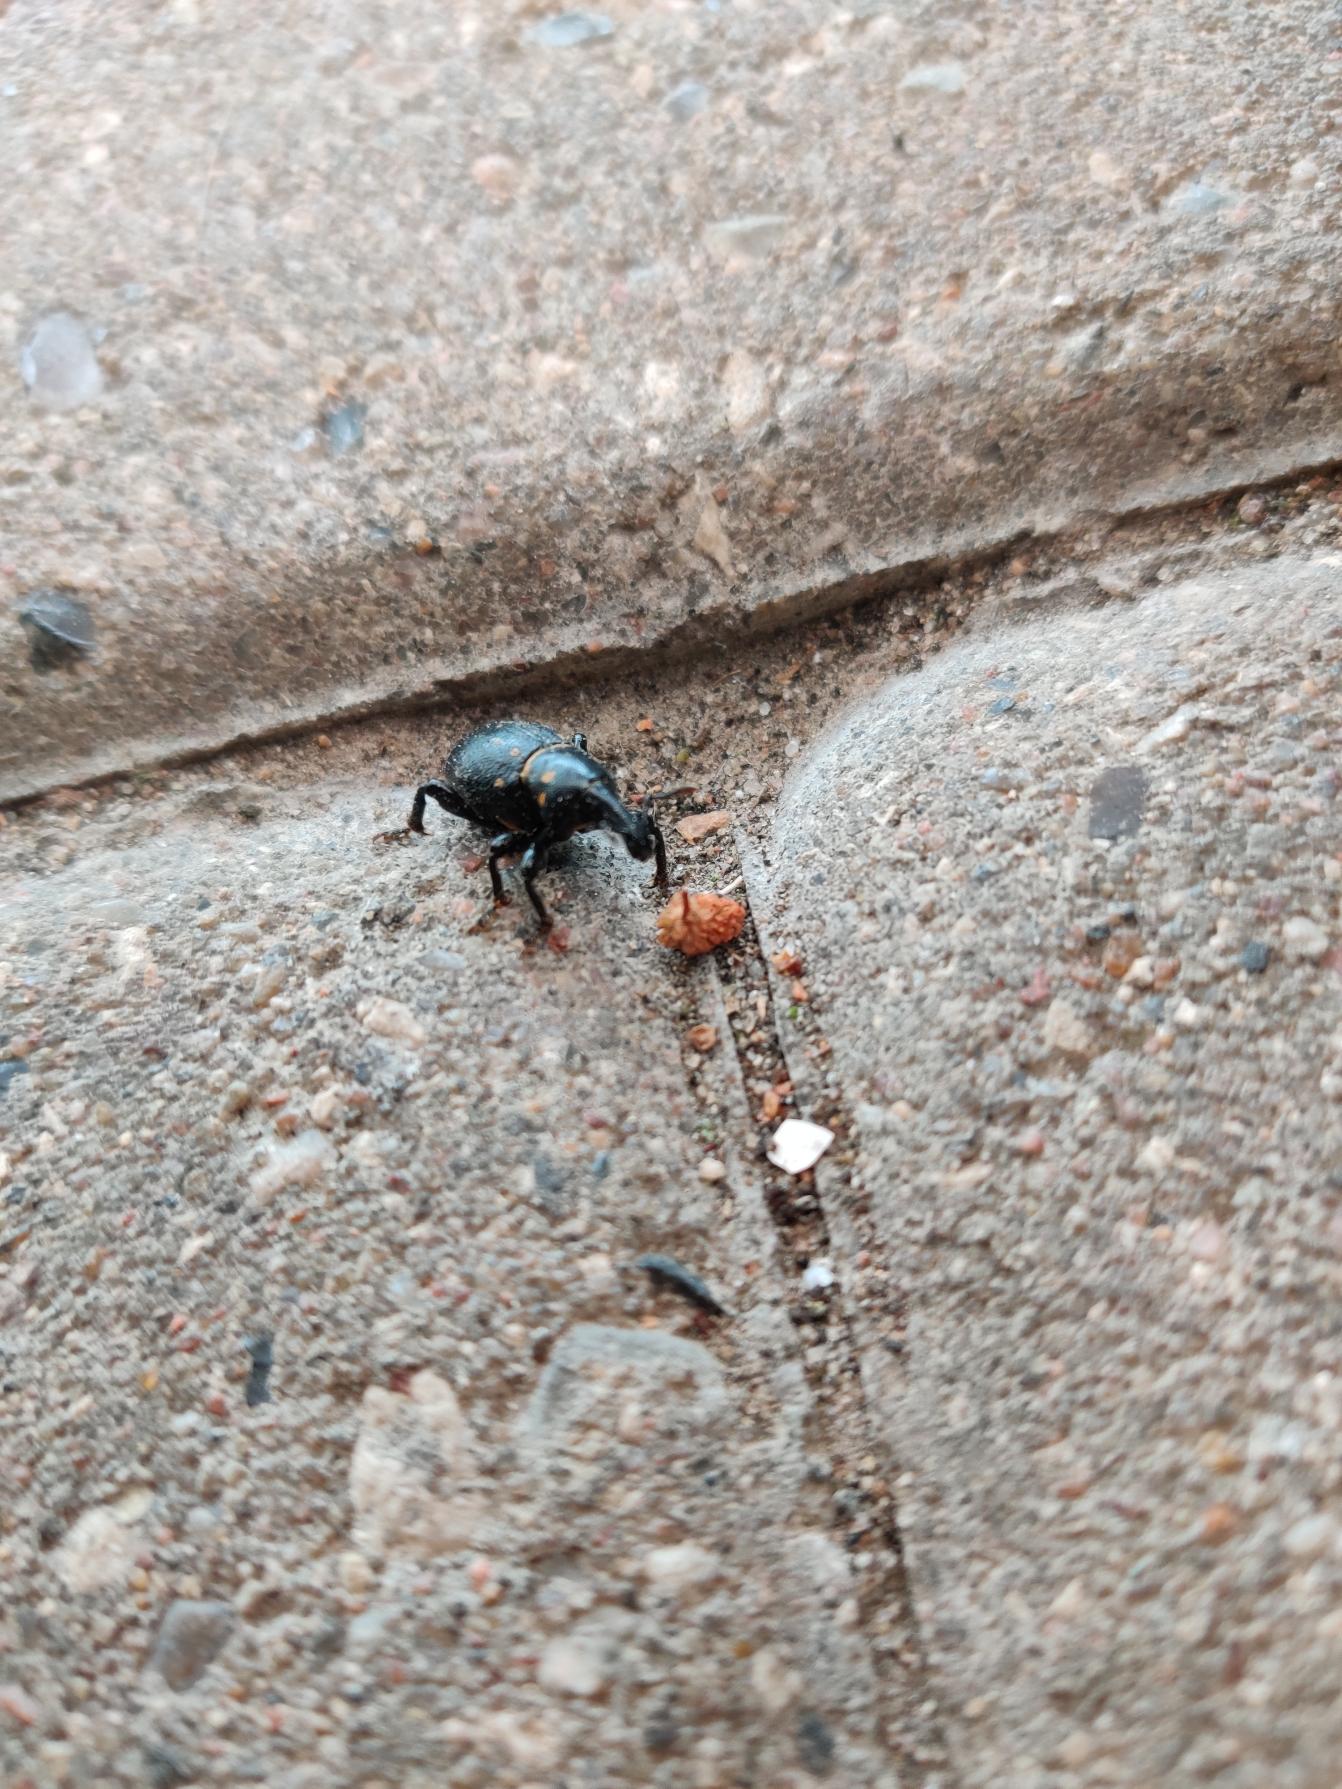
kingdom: Animalia
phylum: Arthropoda
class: Insecta
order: Coleoptera
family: Curculionidae
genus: Liparus
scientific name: Liparus coronatus
